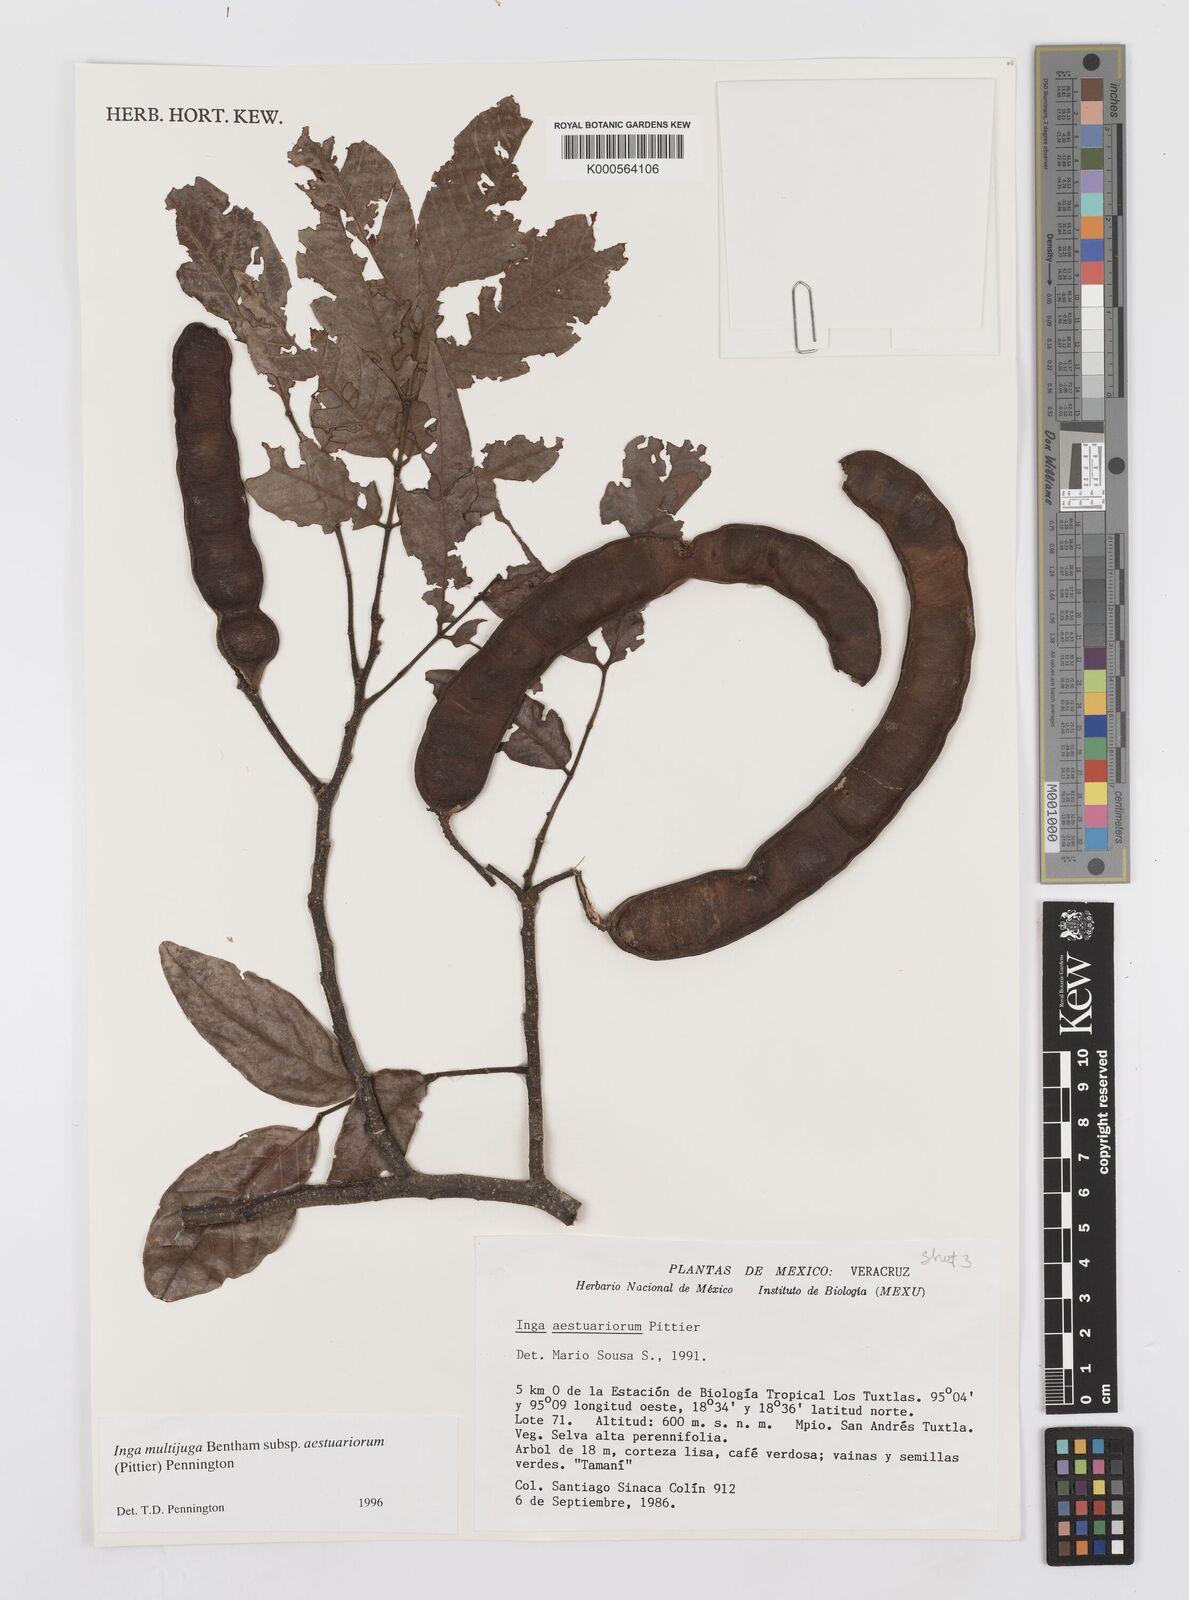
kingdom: Plantae
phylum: Tracheophyta
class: Magnoliopsida
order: Fabales
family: Fabaceae
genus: Inga
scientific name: Inga multijuga
